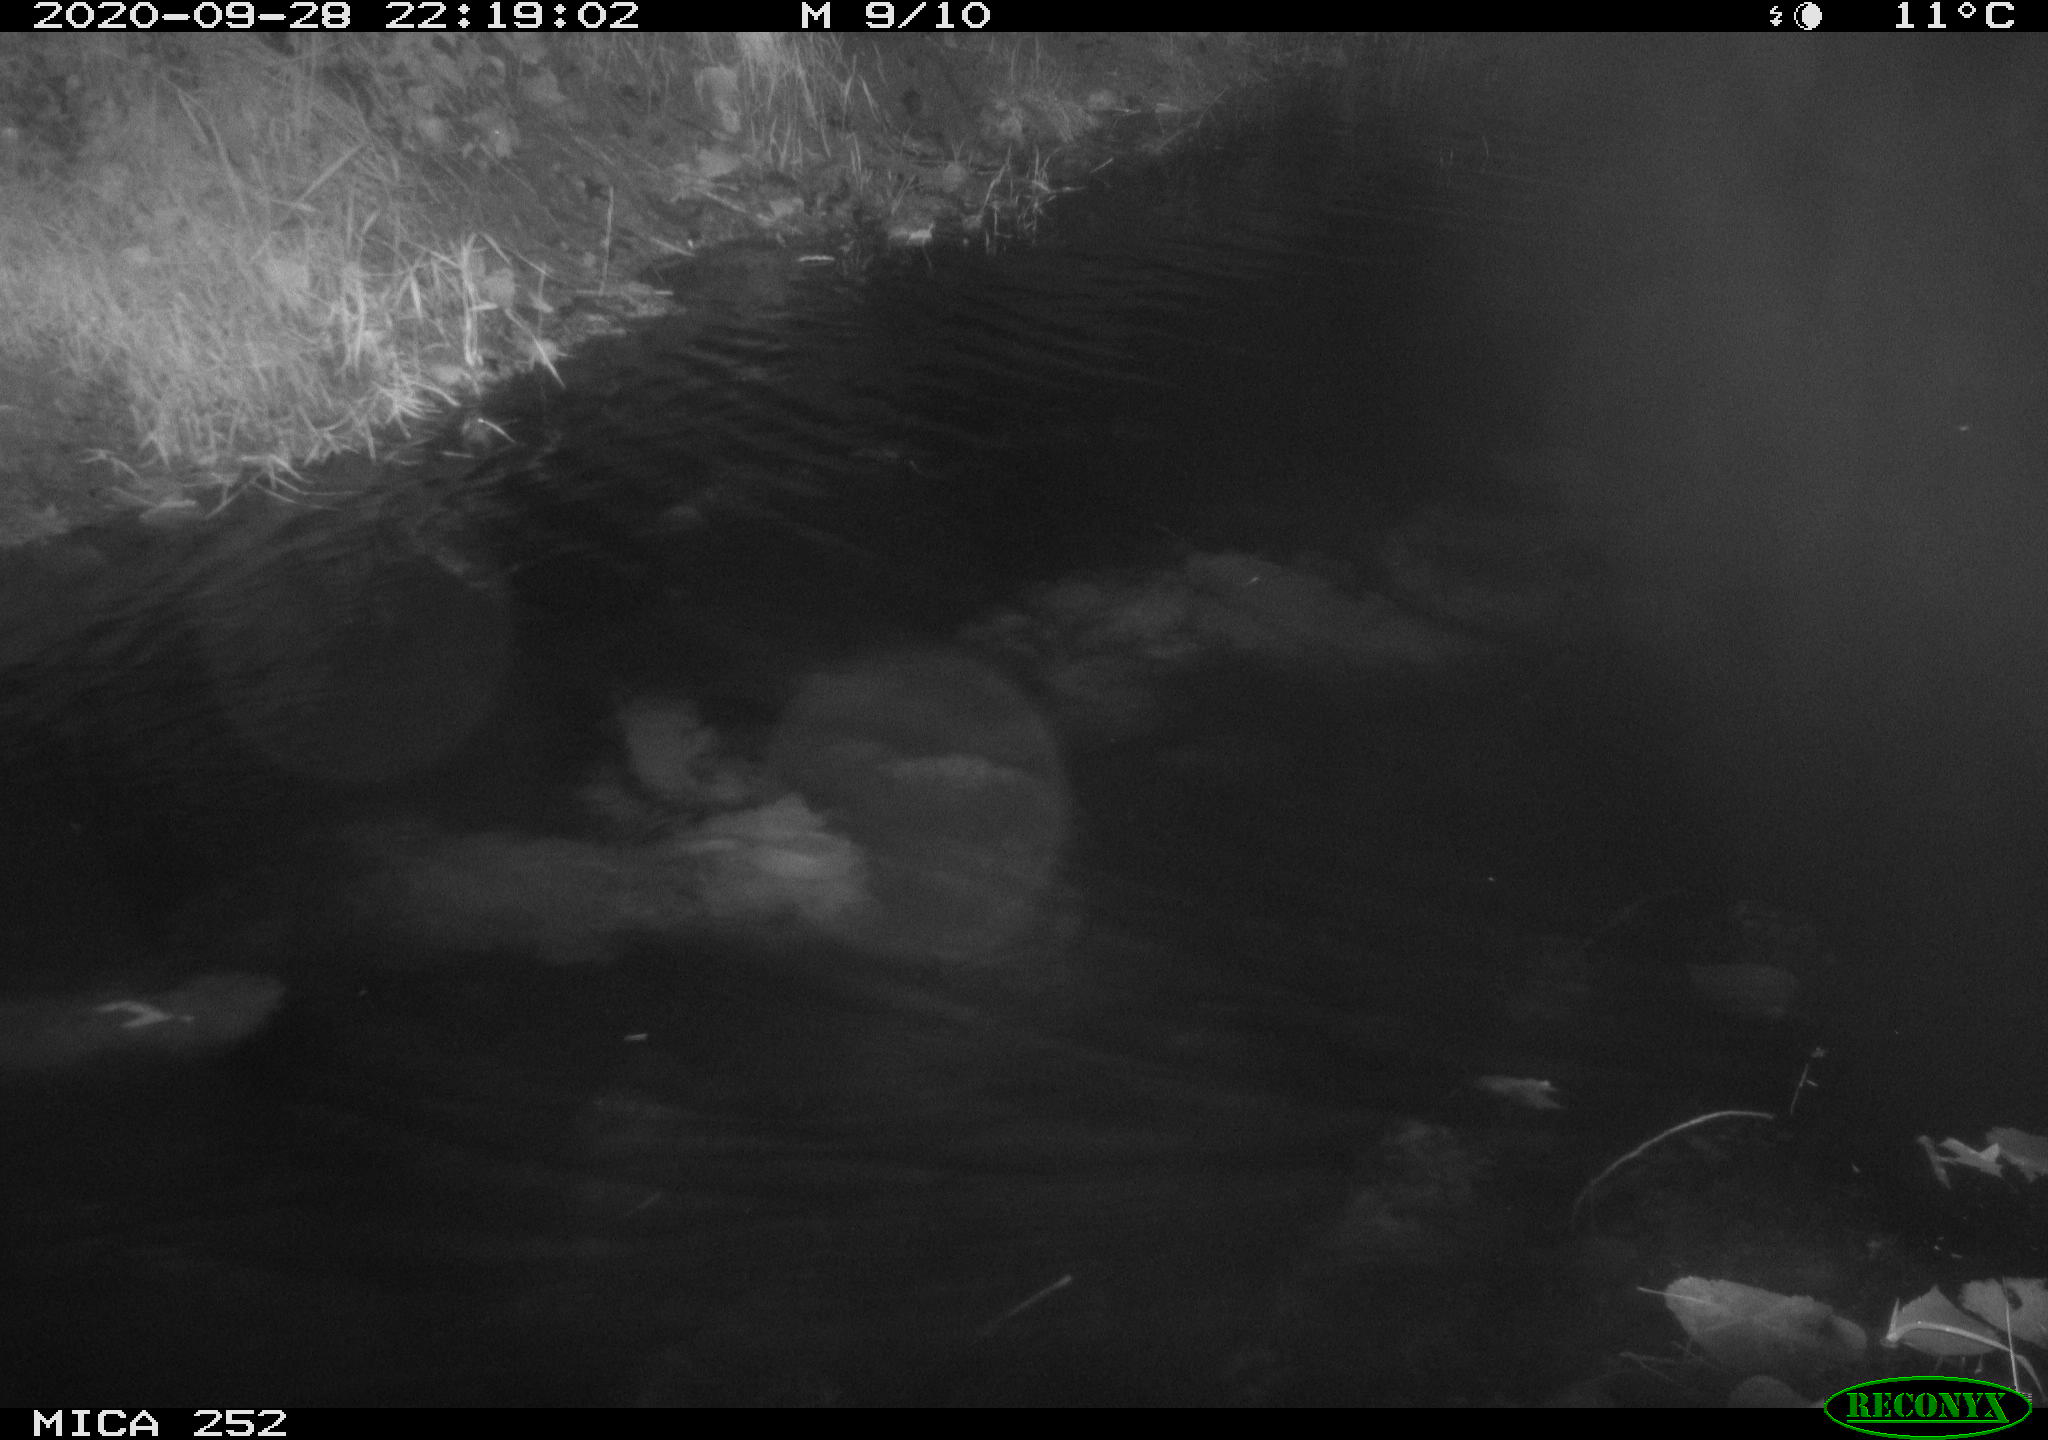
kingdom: Animalia
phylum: Chordata
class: Mammalia
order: Rodentia
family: Castoridae
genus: Castor
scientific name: Castor fiber
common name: Eurasian beaver
